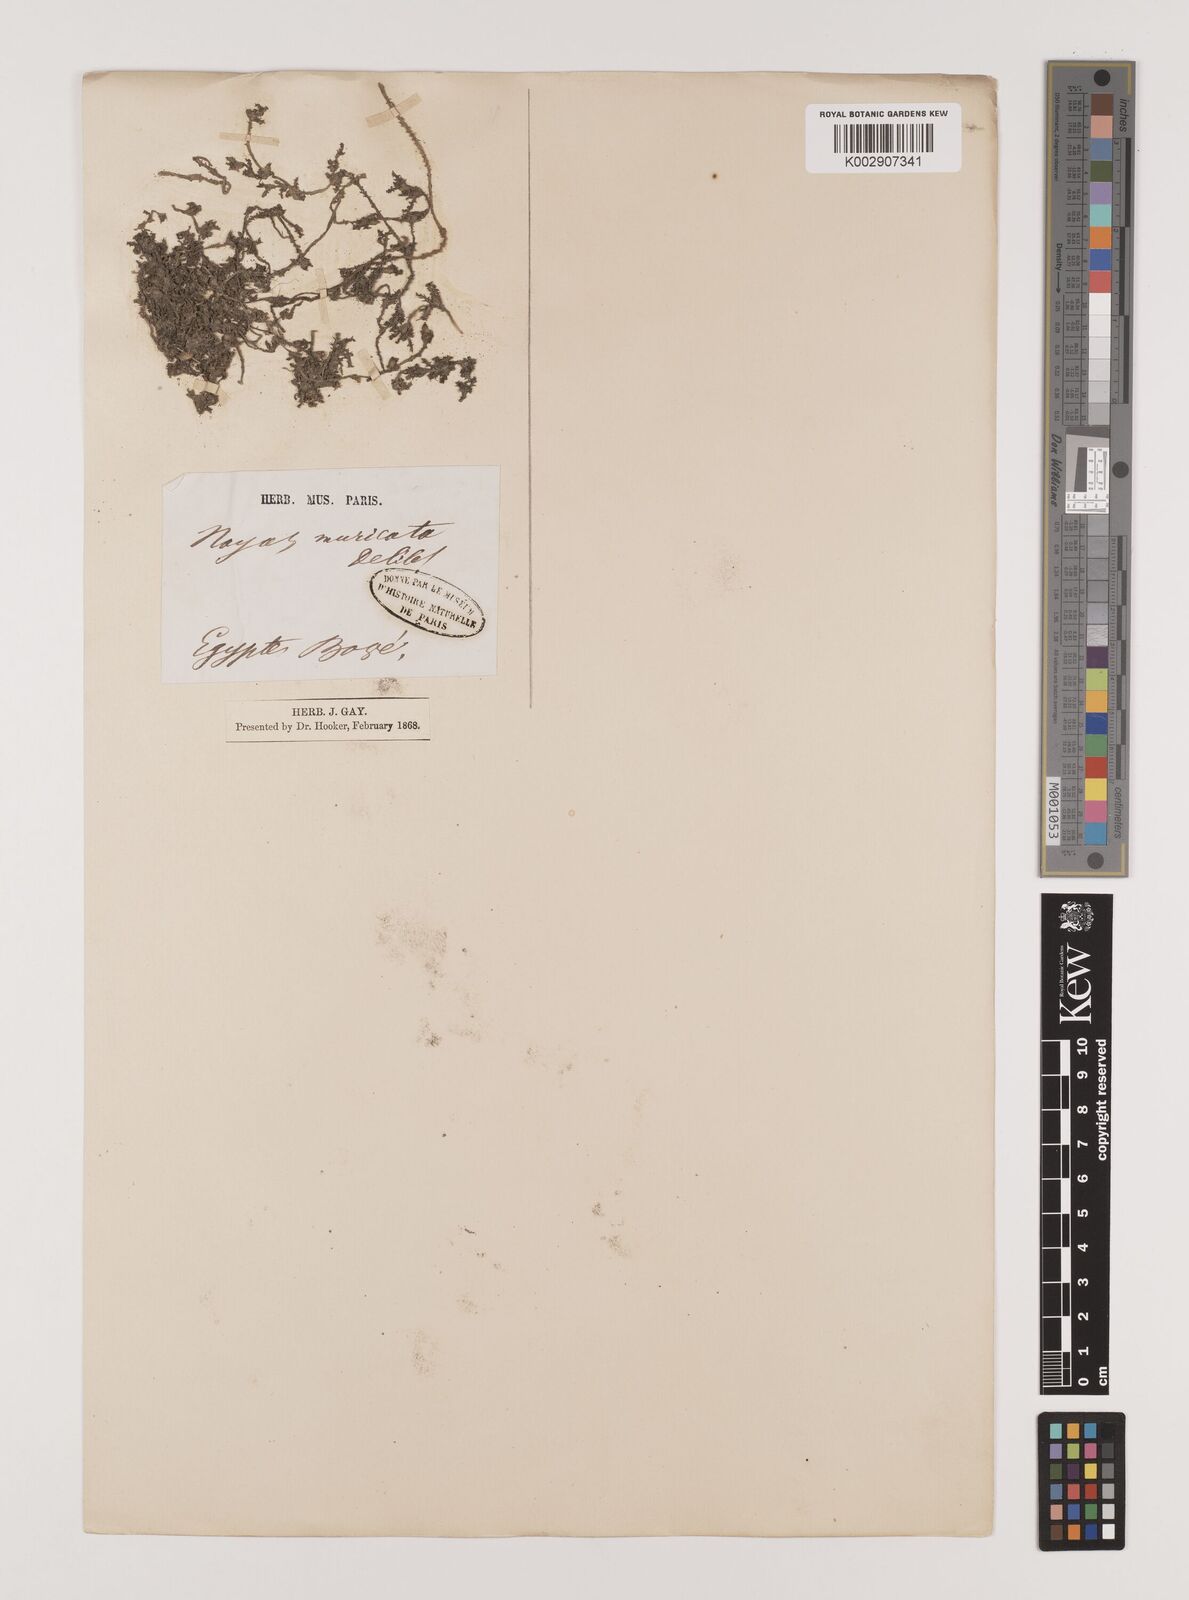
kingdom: Plantae
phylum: Tracheophyta
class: Liliopsida
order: Alismatales
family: Hydrocharitaceae
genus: Najas
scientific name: Najas marina
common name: Holly-leaved naiad
